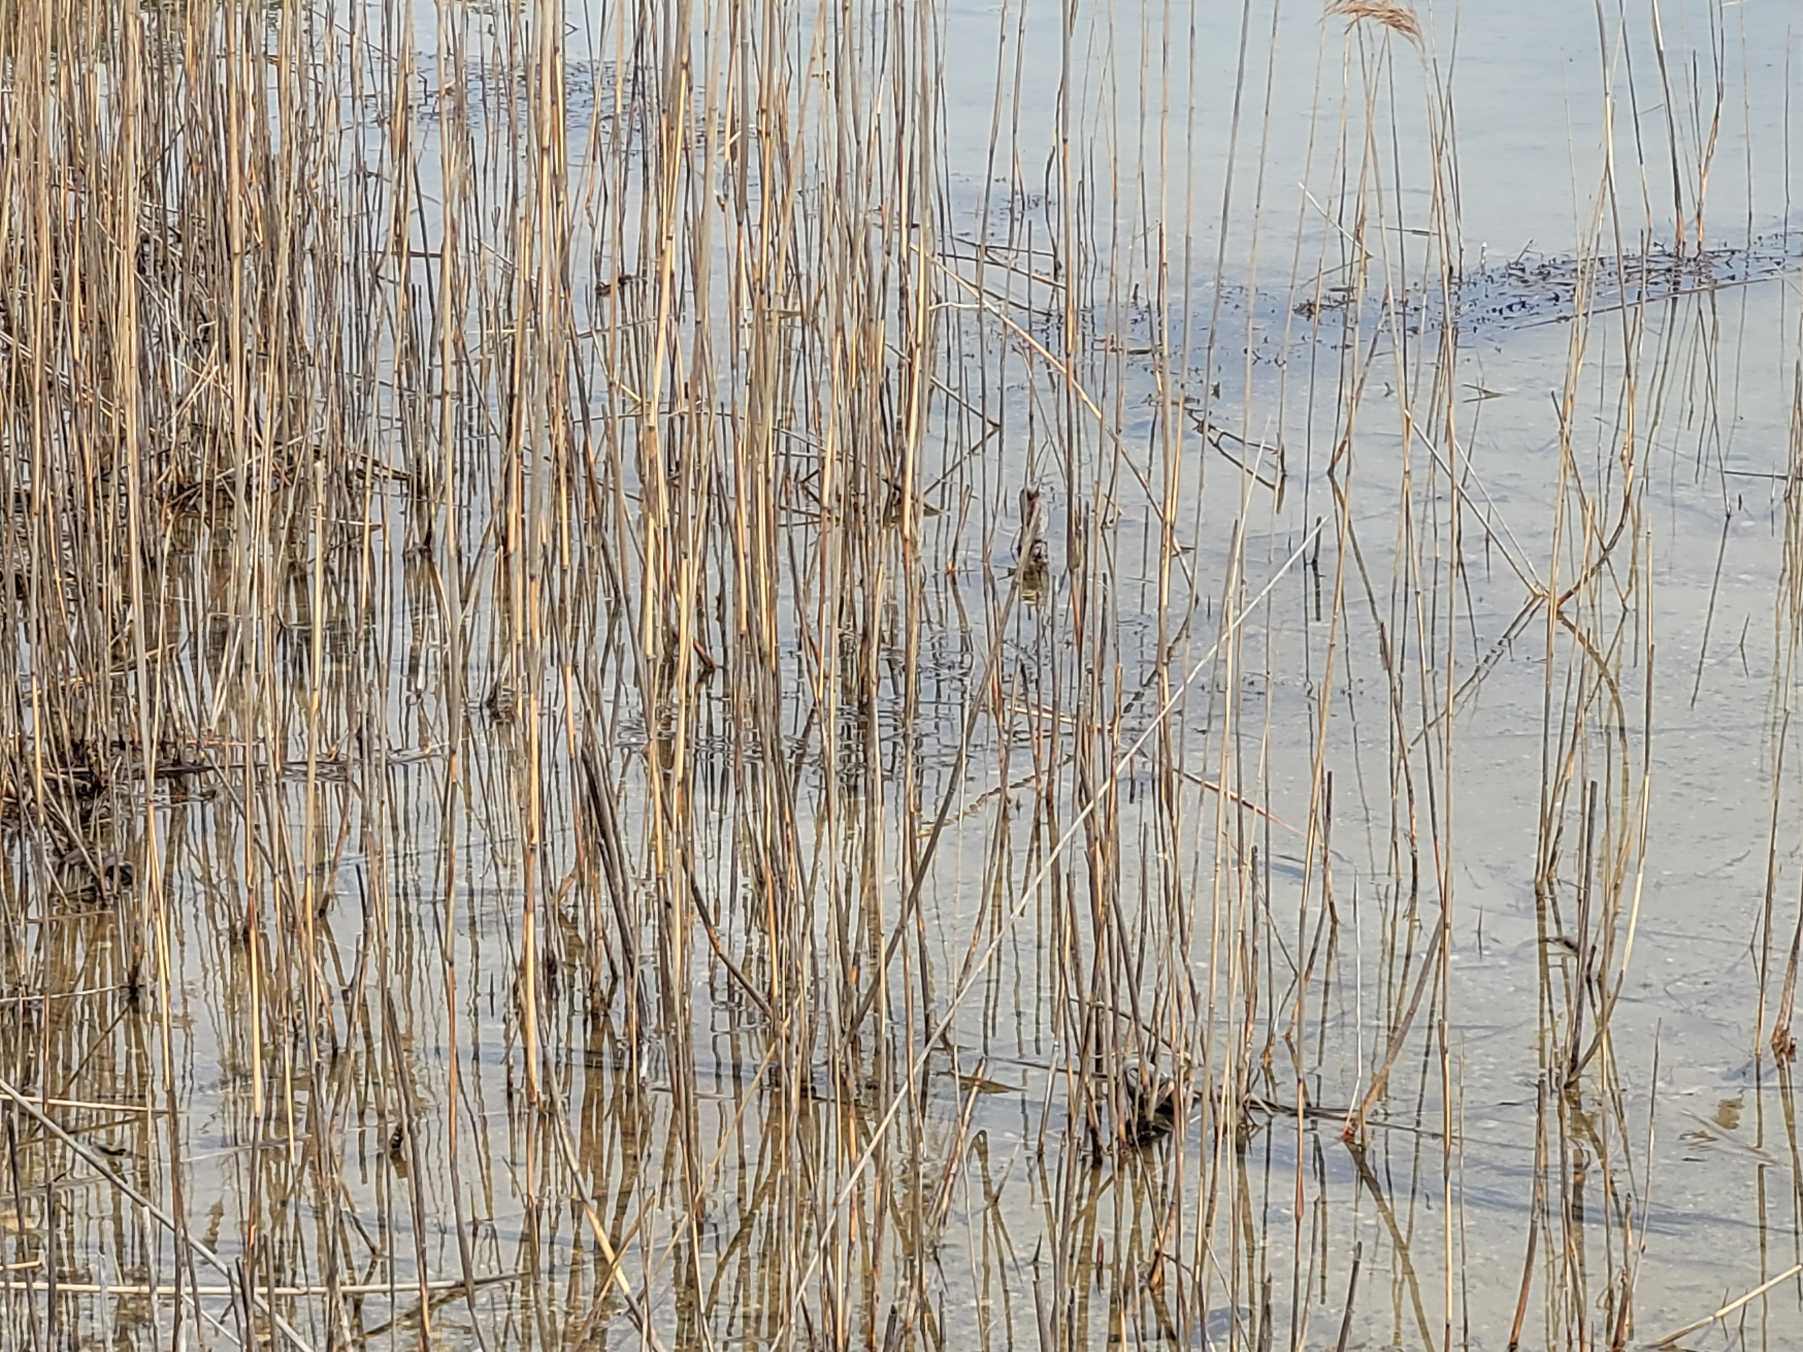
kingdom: Animalia
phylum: Chordata
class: Amphibia
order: Anura
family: Bufonidae
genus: Bufo
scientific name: Bufo bufo
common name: Skrubtudse
